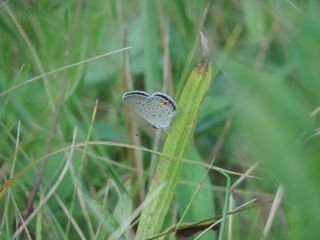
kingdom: Animalia
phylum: Arthropoda
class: Insecta
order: Lepidoptera
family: Lycaenidae
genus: Elkalyce
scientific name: Elkalyce comyntas
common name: Eastern Tailed-Blue
